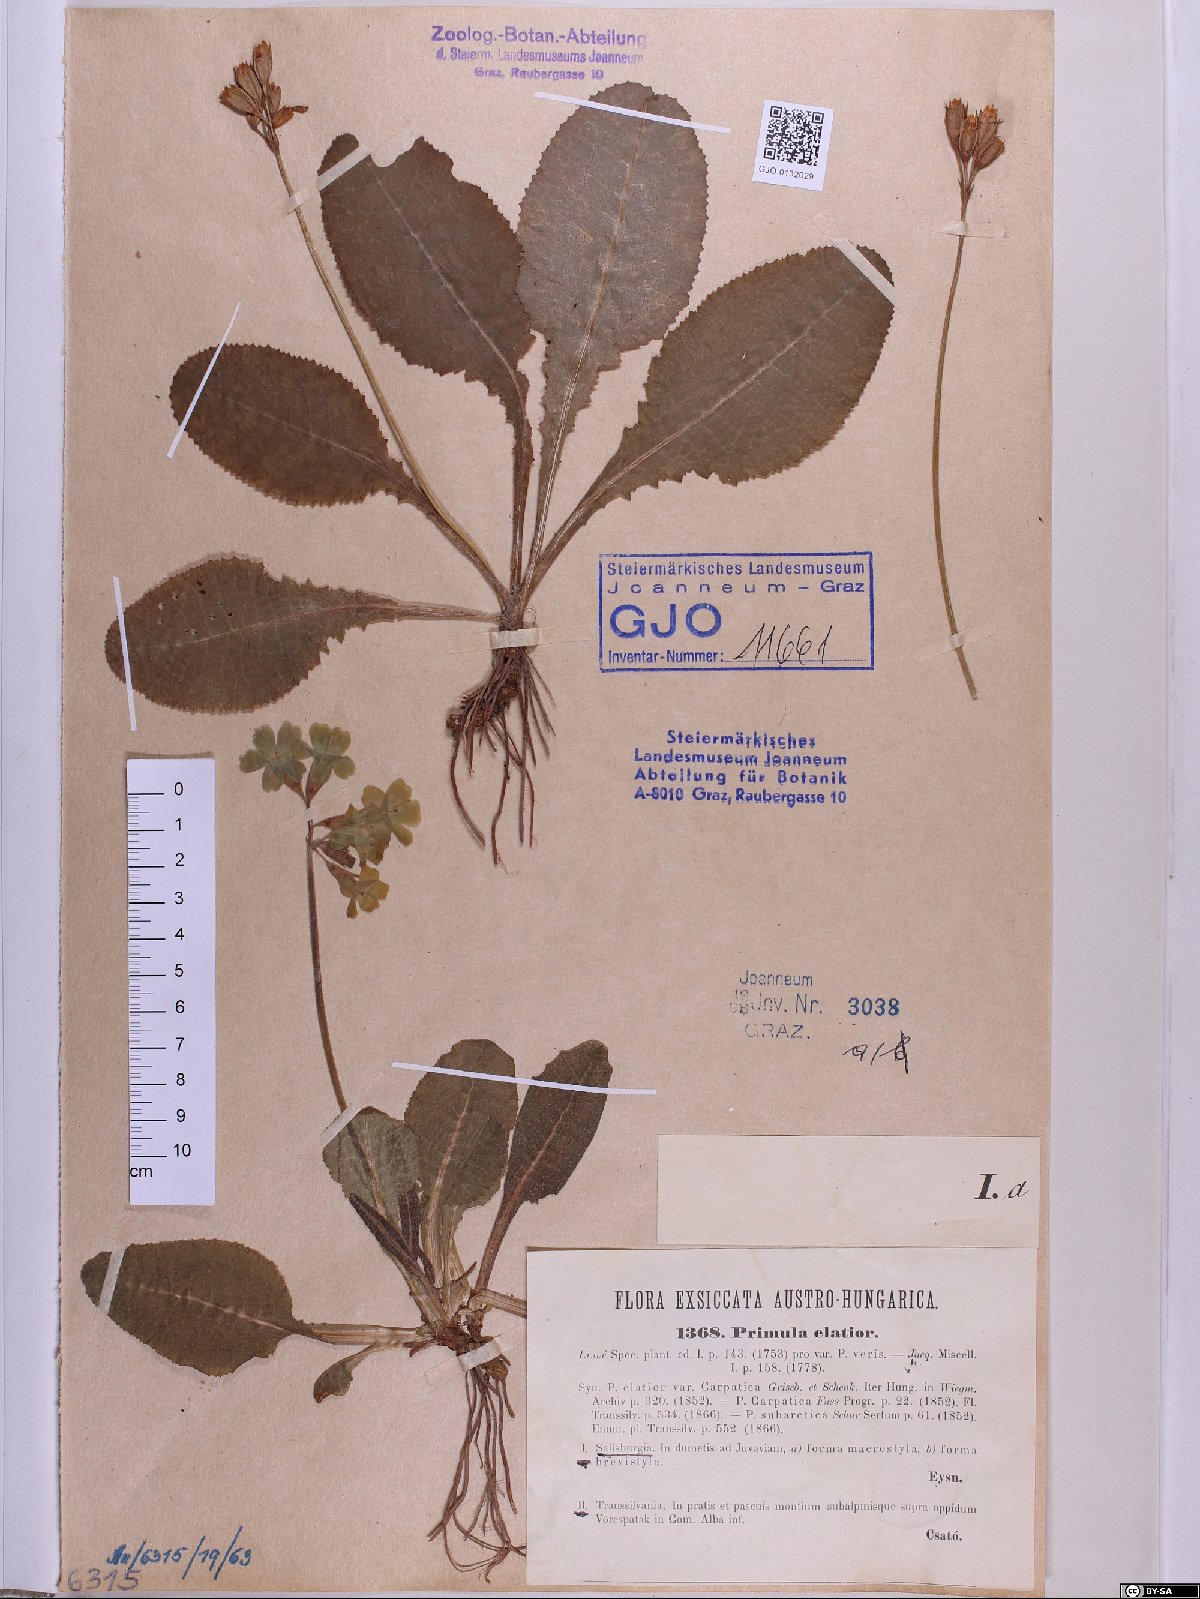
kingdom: Plantae
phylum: Tracheophyta
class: Magnoliopsida
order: Ericales
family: Primulaceae
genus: Primula
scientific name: Primula elatior
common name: Oxlip
